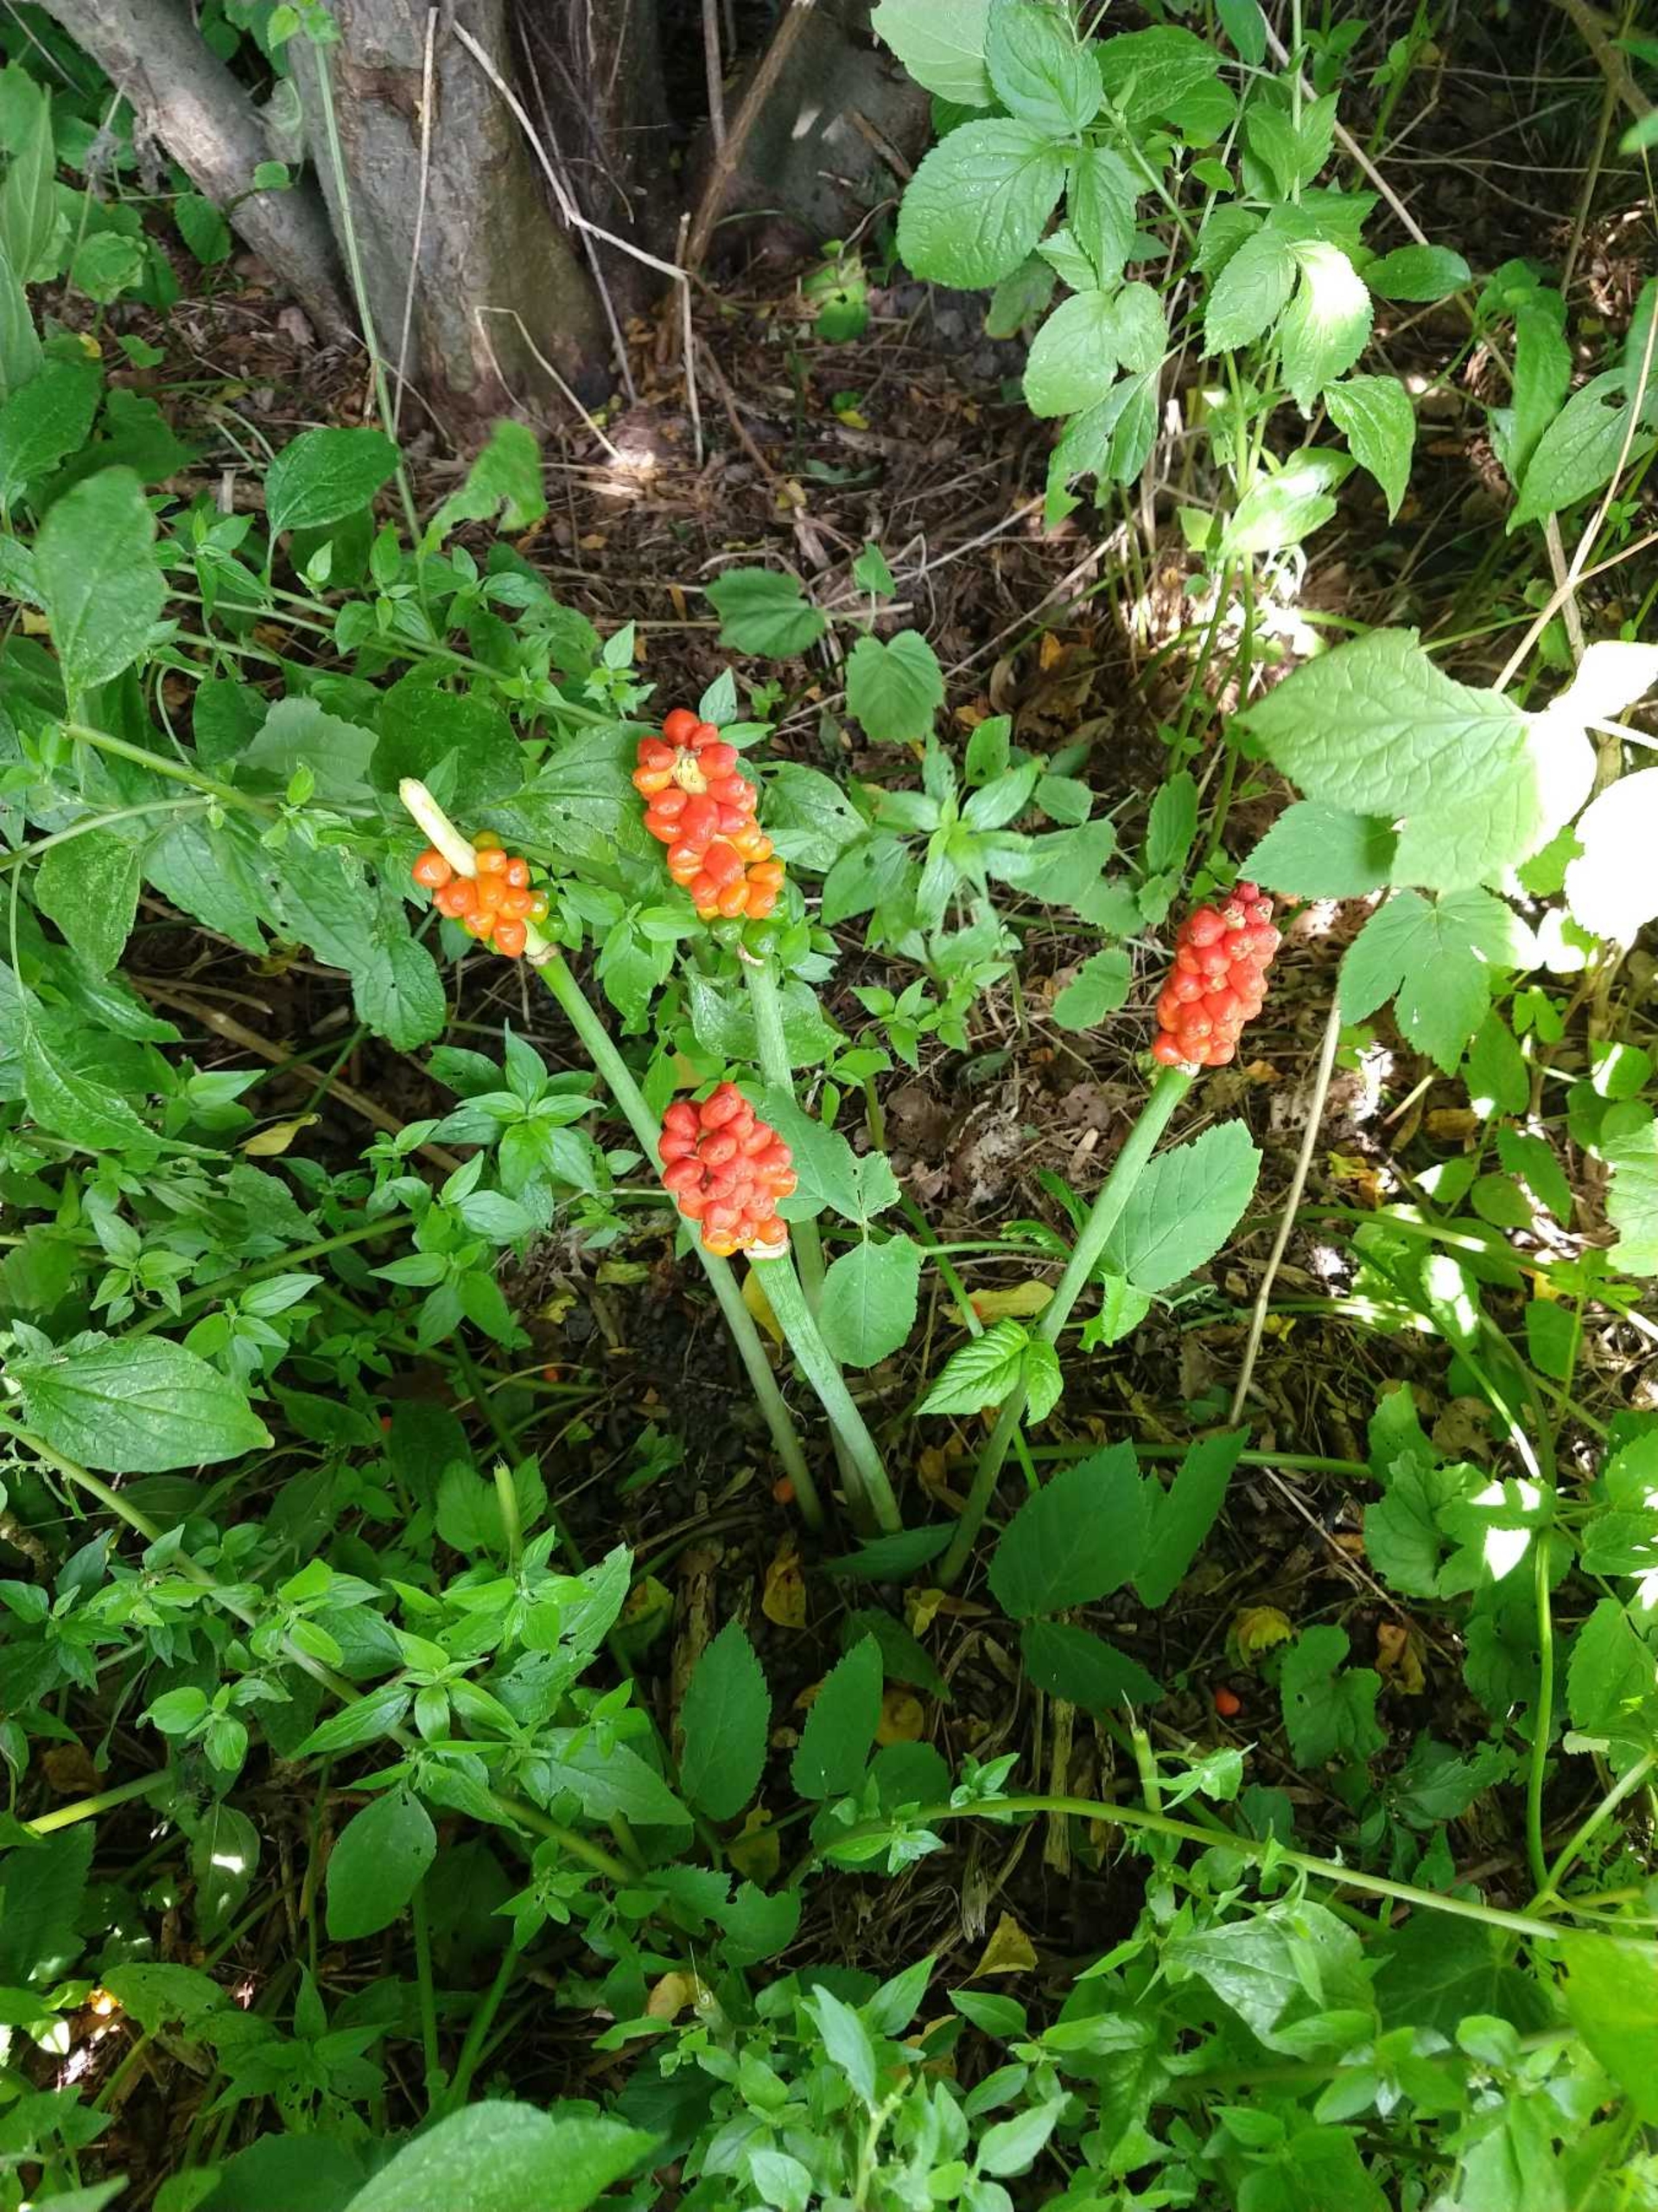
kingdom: Plantae
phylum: Tracheophyta
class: Liliopsida
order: Alismatales
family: Araceae
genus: Arum
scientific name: Arum
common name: Arumslægten
